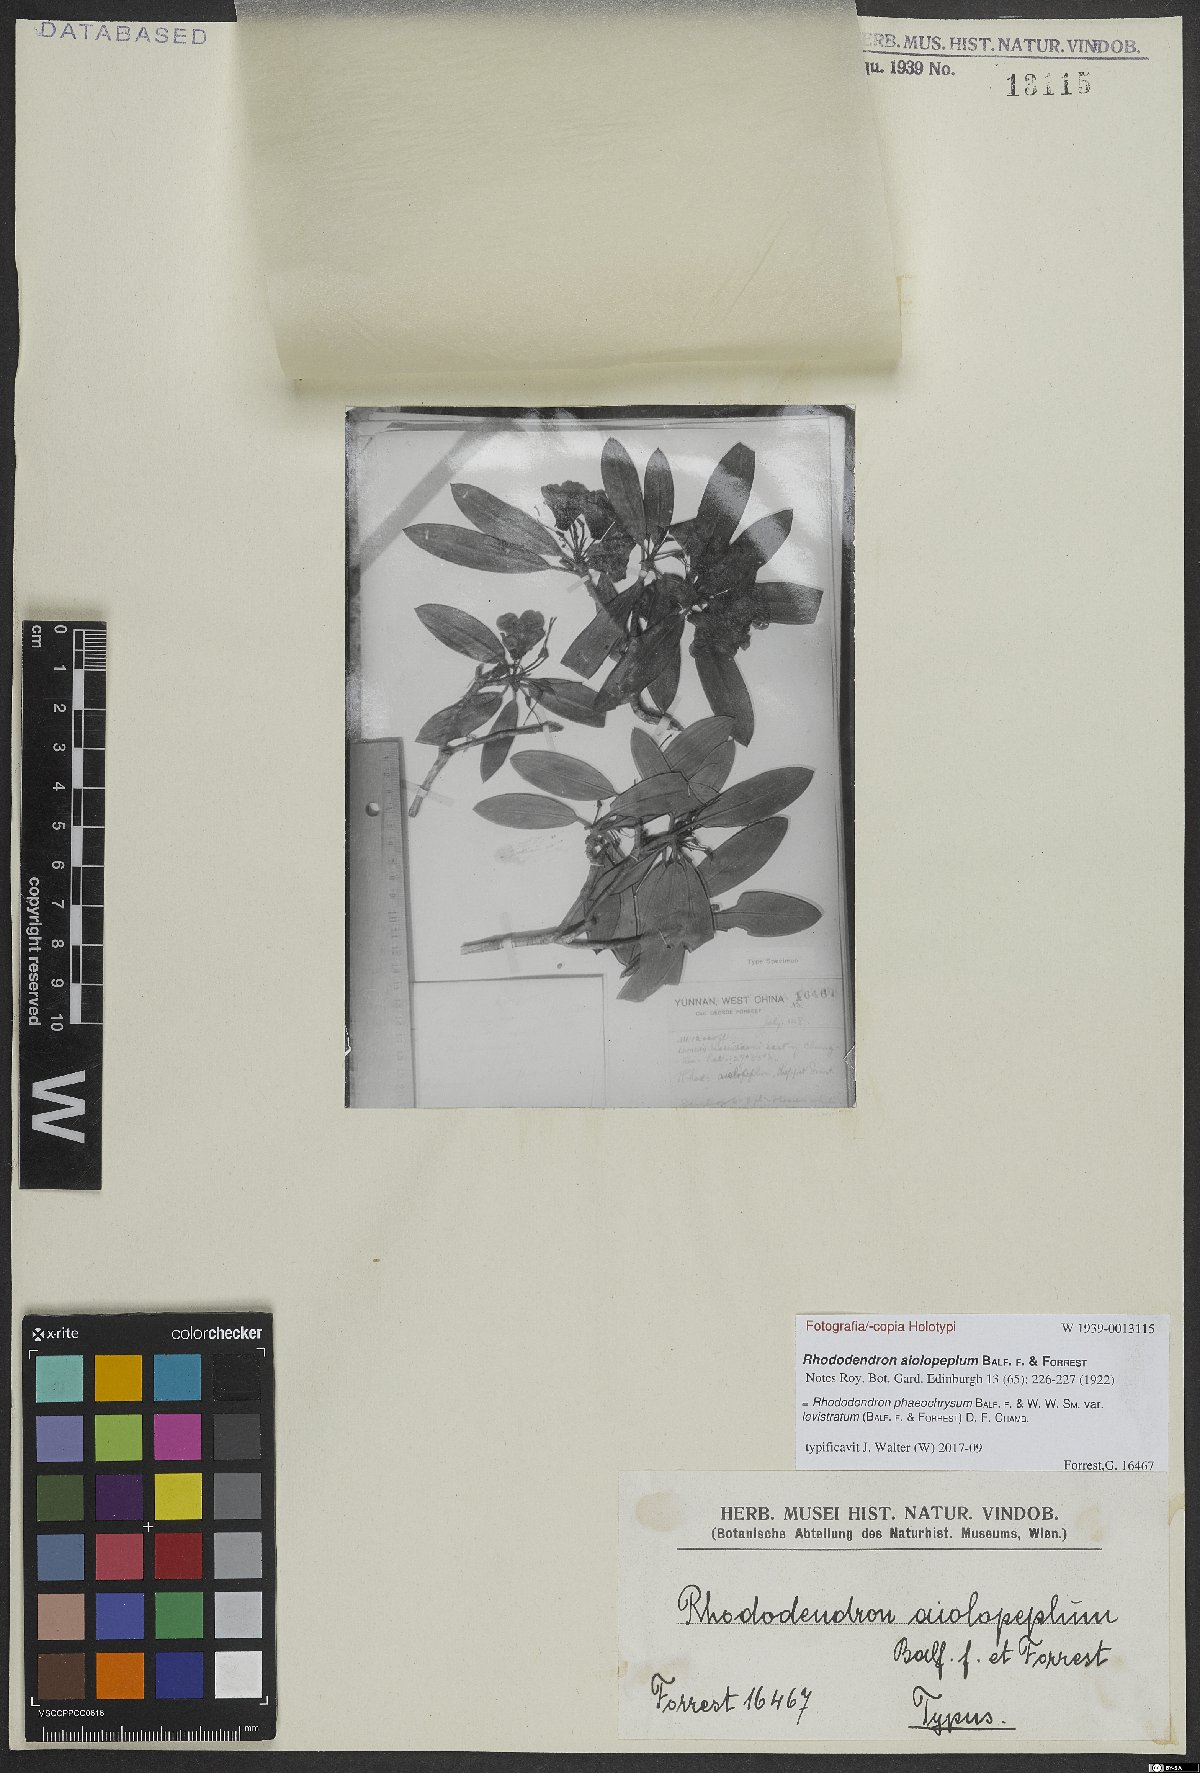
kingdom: Plantae
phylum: Tracheophyta
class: Magnoliopsida
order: Ericales
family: Ericaceae
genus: Rhododendron
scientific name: Rhododendron phaeochrysum
